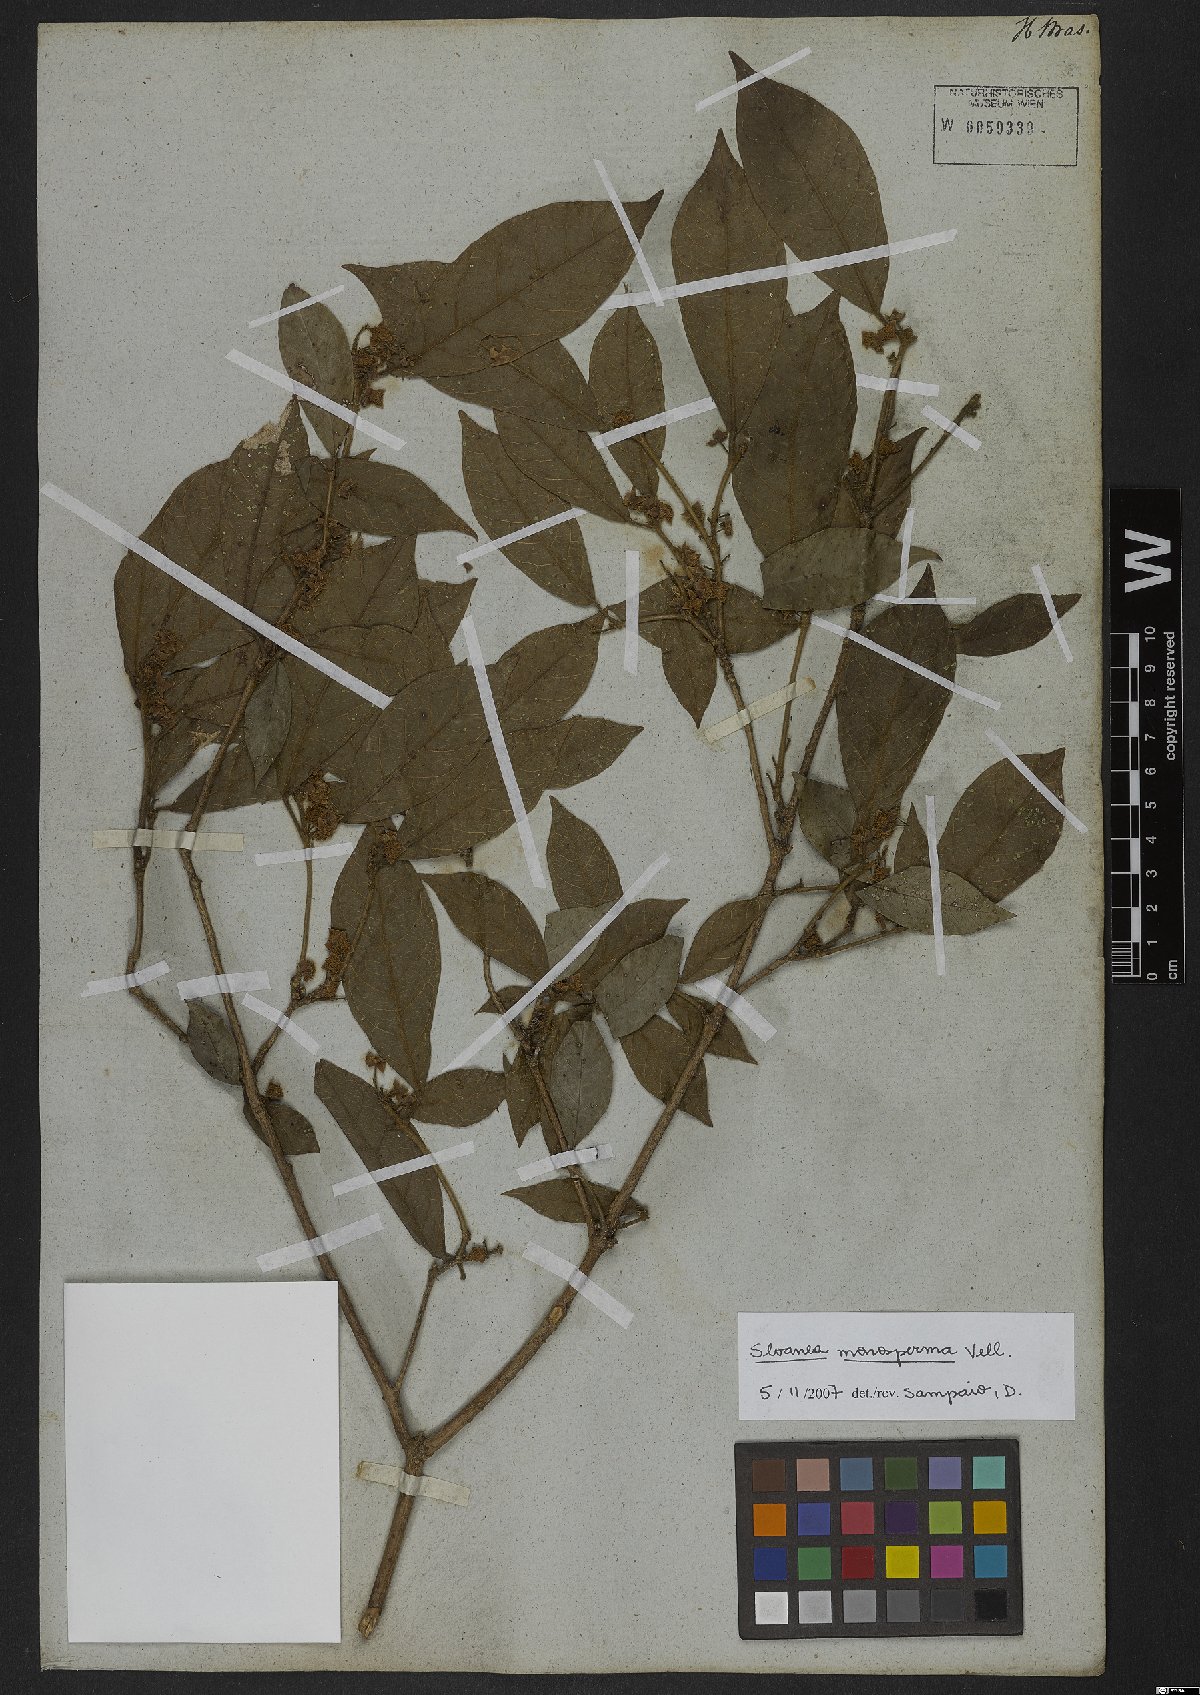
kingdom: Plantae
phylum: Tracheophyta
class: Magnoliopsida
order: Oxalidales
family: Elaeocarpaceae
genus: Sloanea
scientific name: Sloanea hirsuta
